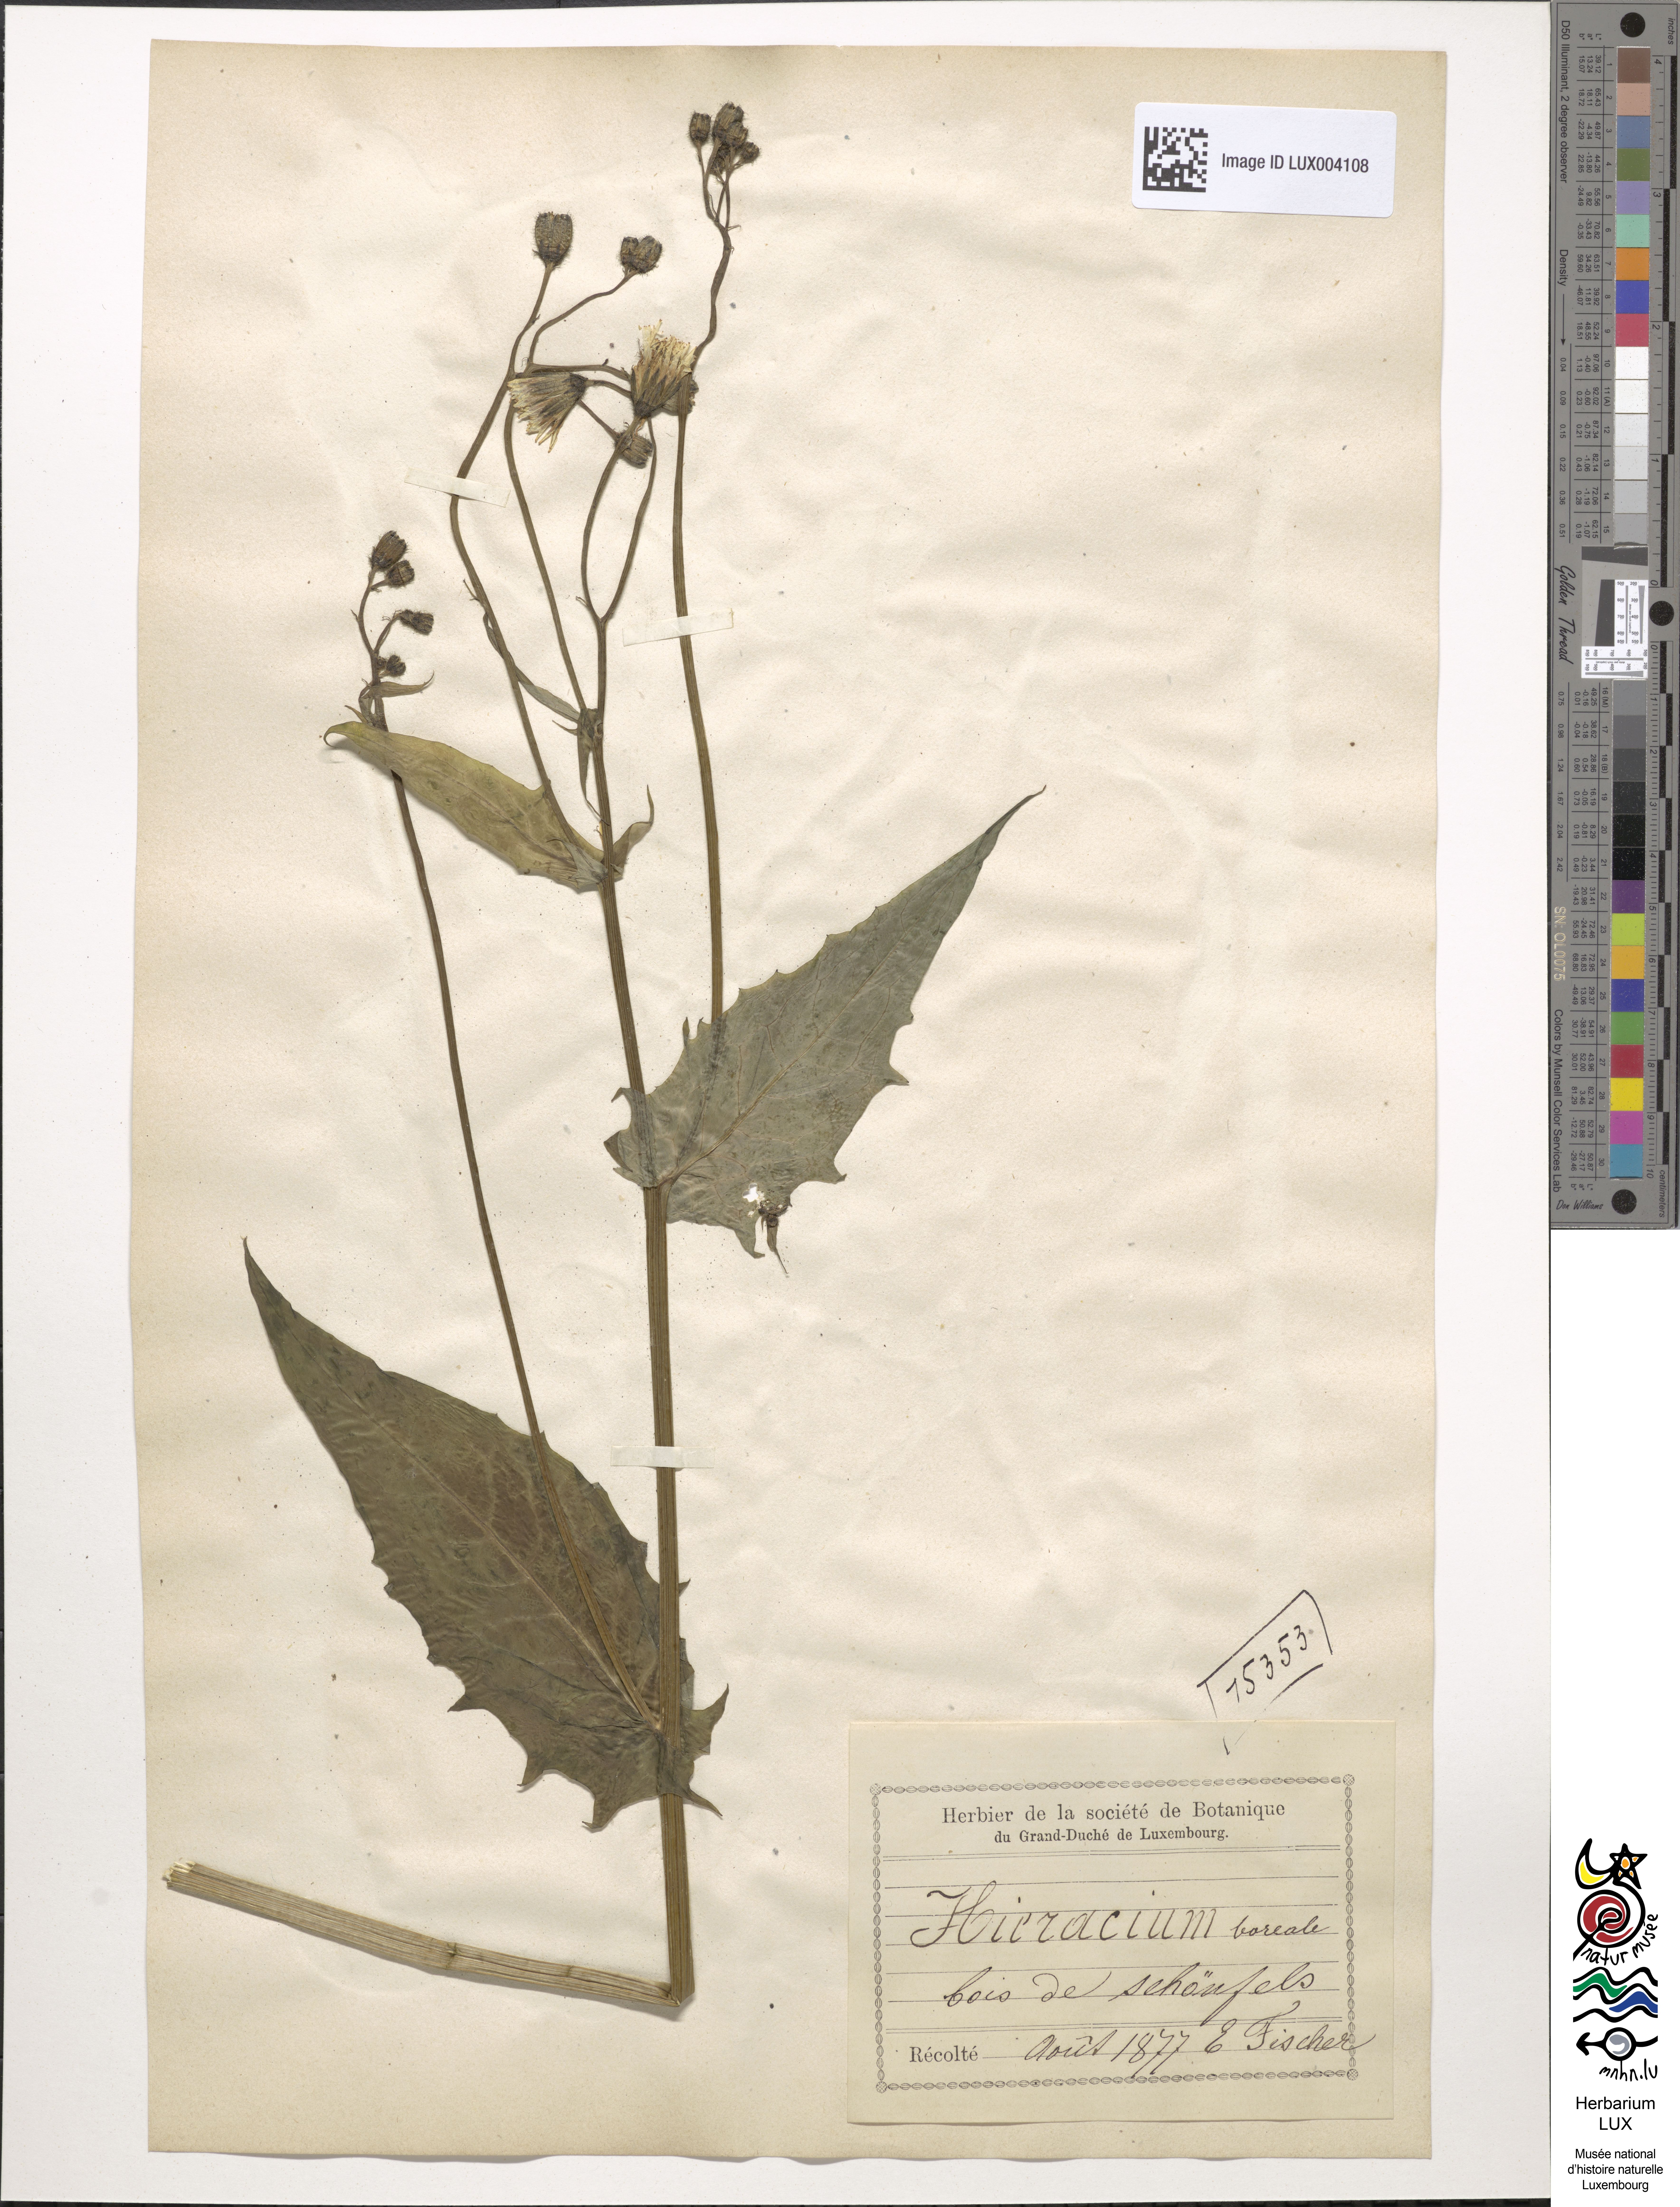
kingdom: Plantae
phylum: Tracheophyta
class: Magnoliopsida
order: Asterales
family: Asteraceae
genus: Hieracium
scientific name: Hieracium sabaudum
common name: New england hawkweed
